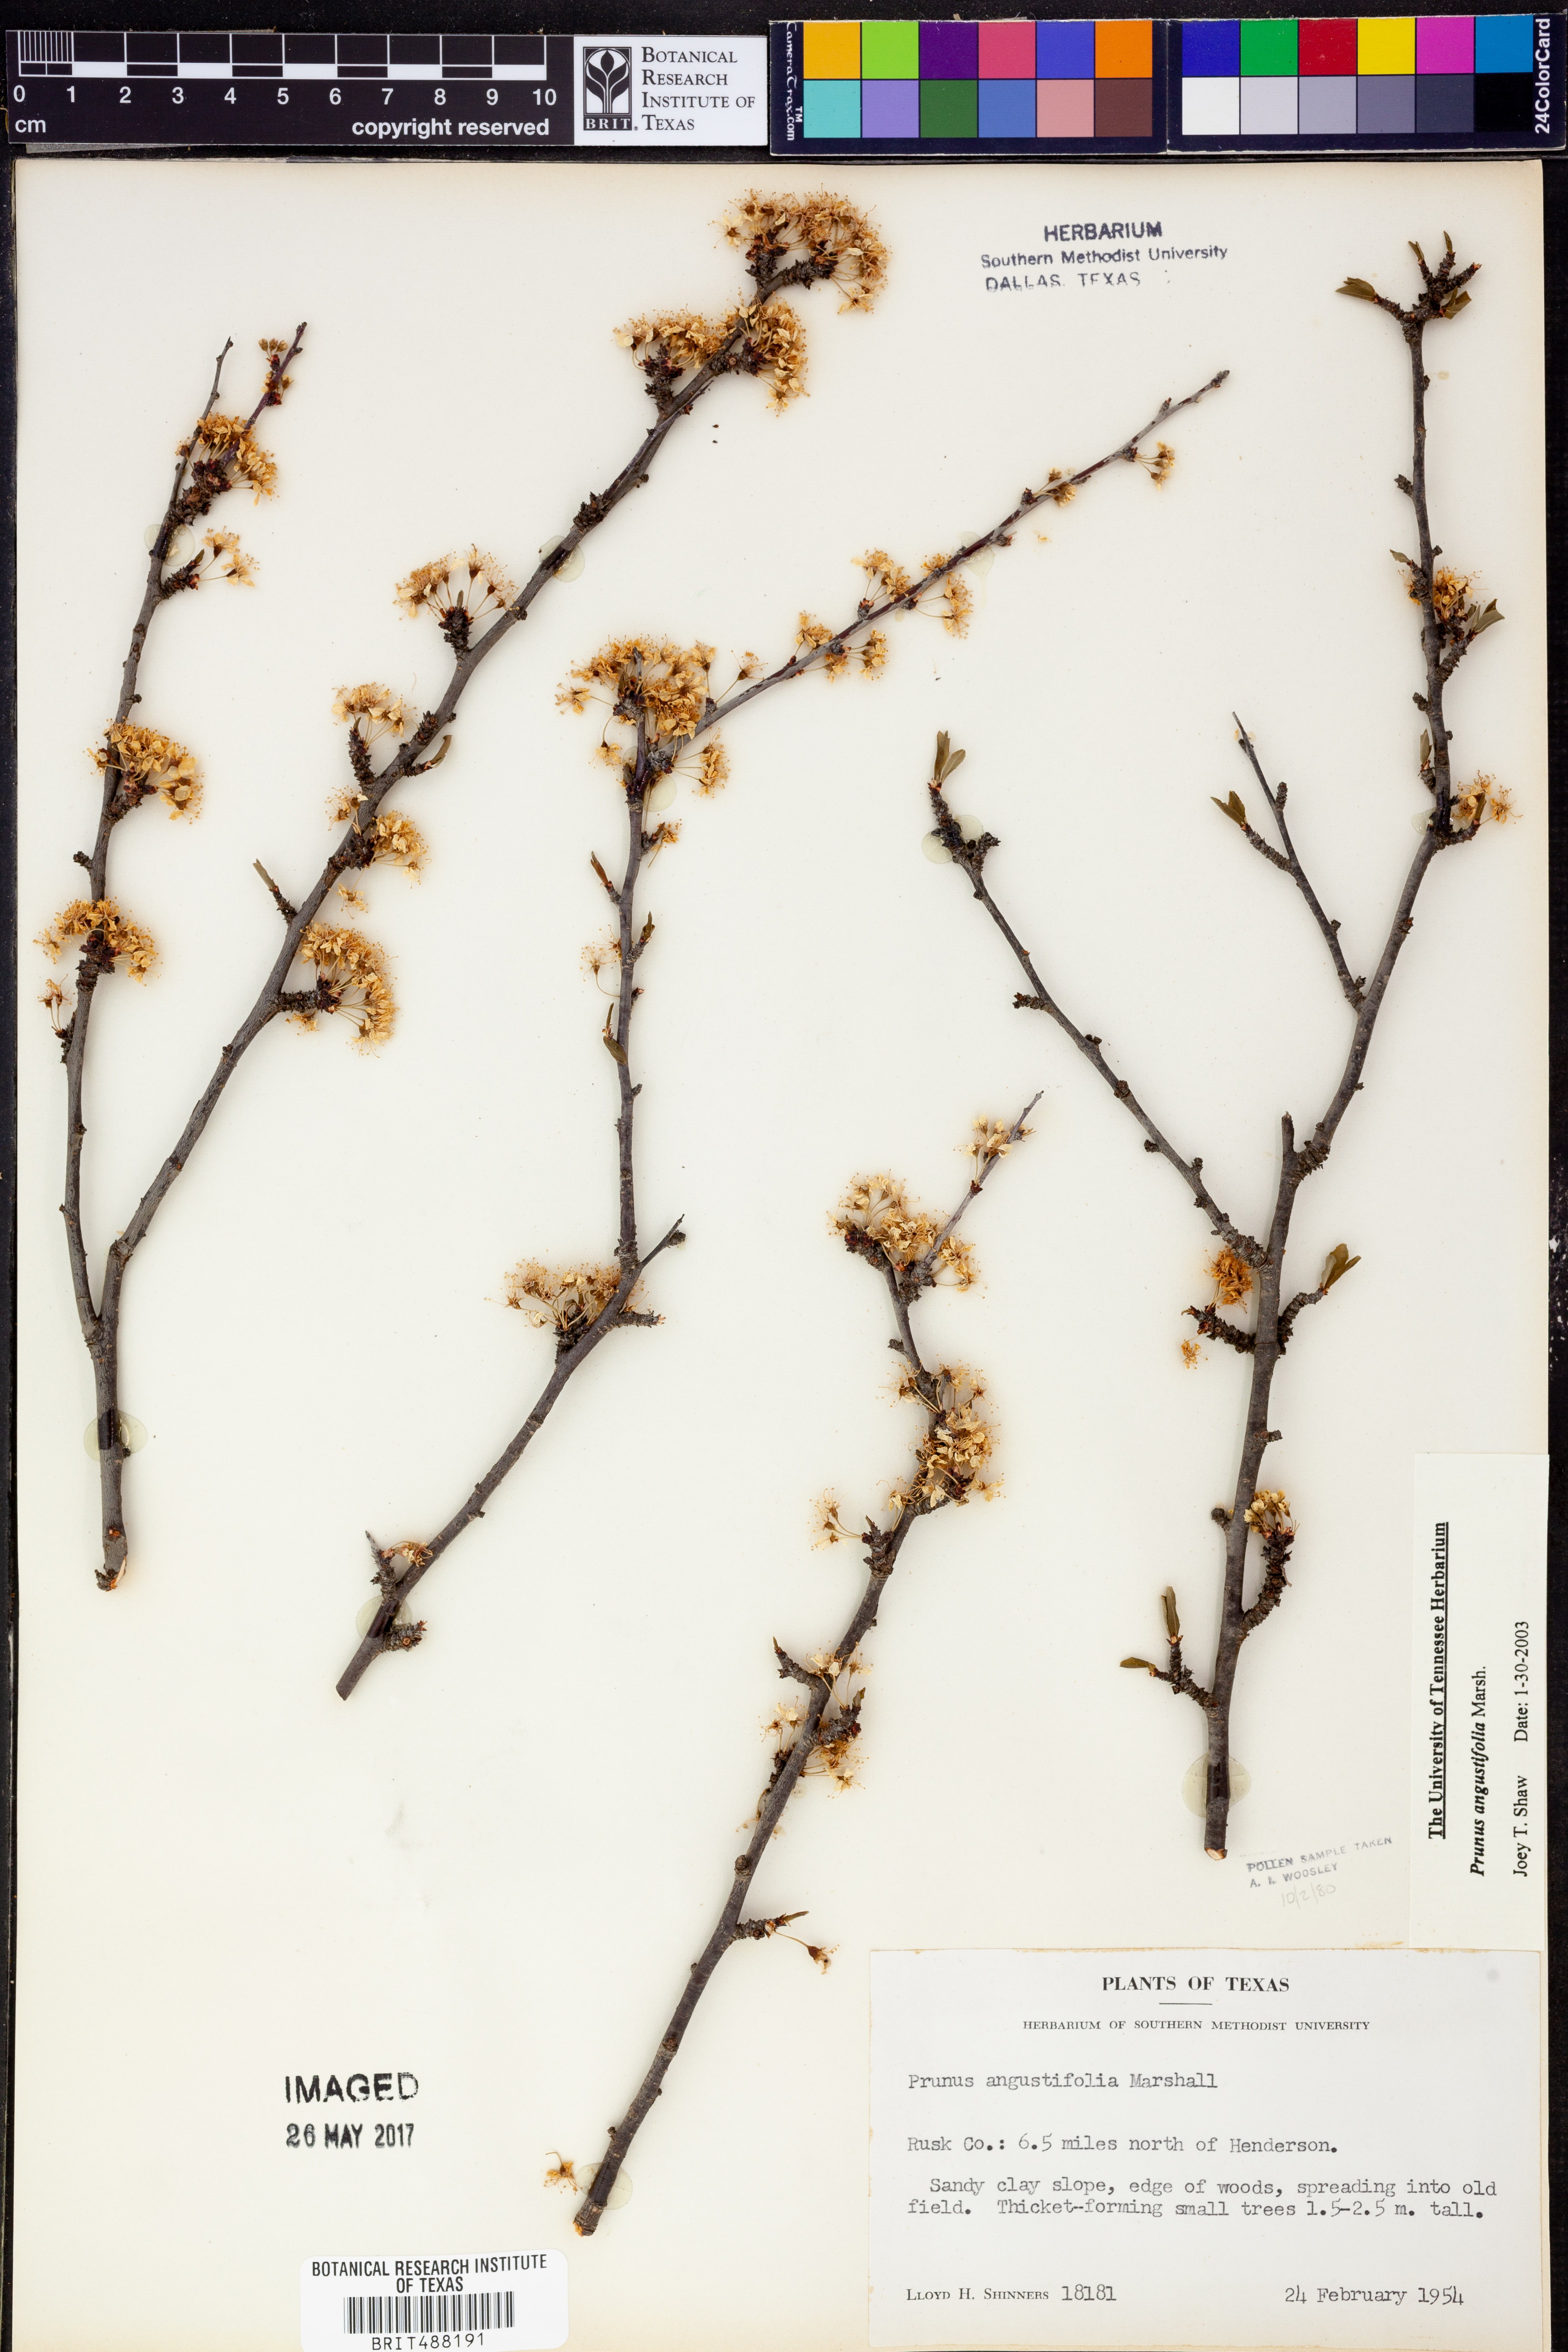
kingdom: Plantae
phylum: Tracheophyta
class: Magnoliopsida
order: Rosales
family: Rosaceae
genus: Prunus
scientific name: Prunus angustifolia
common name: Cherokee plum
